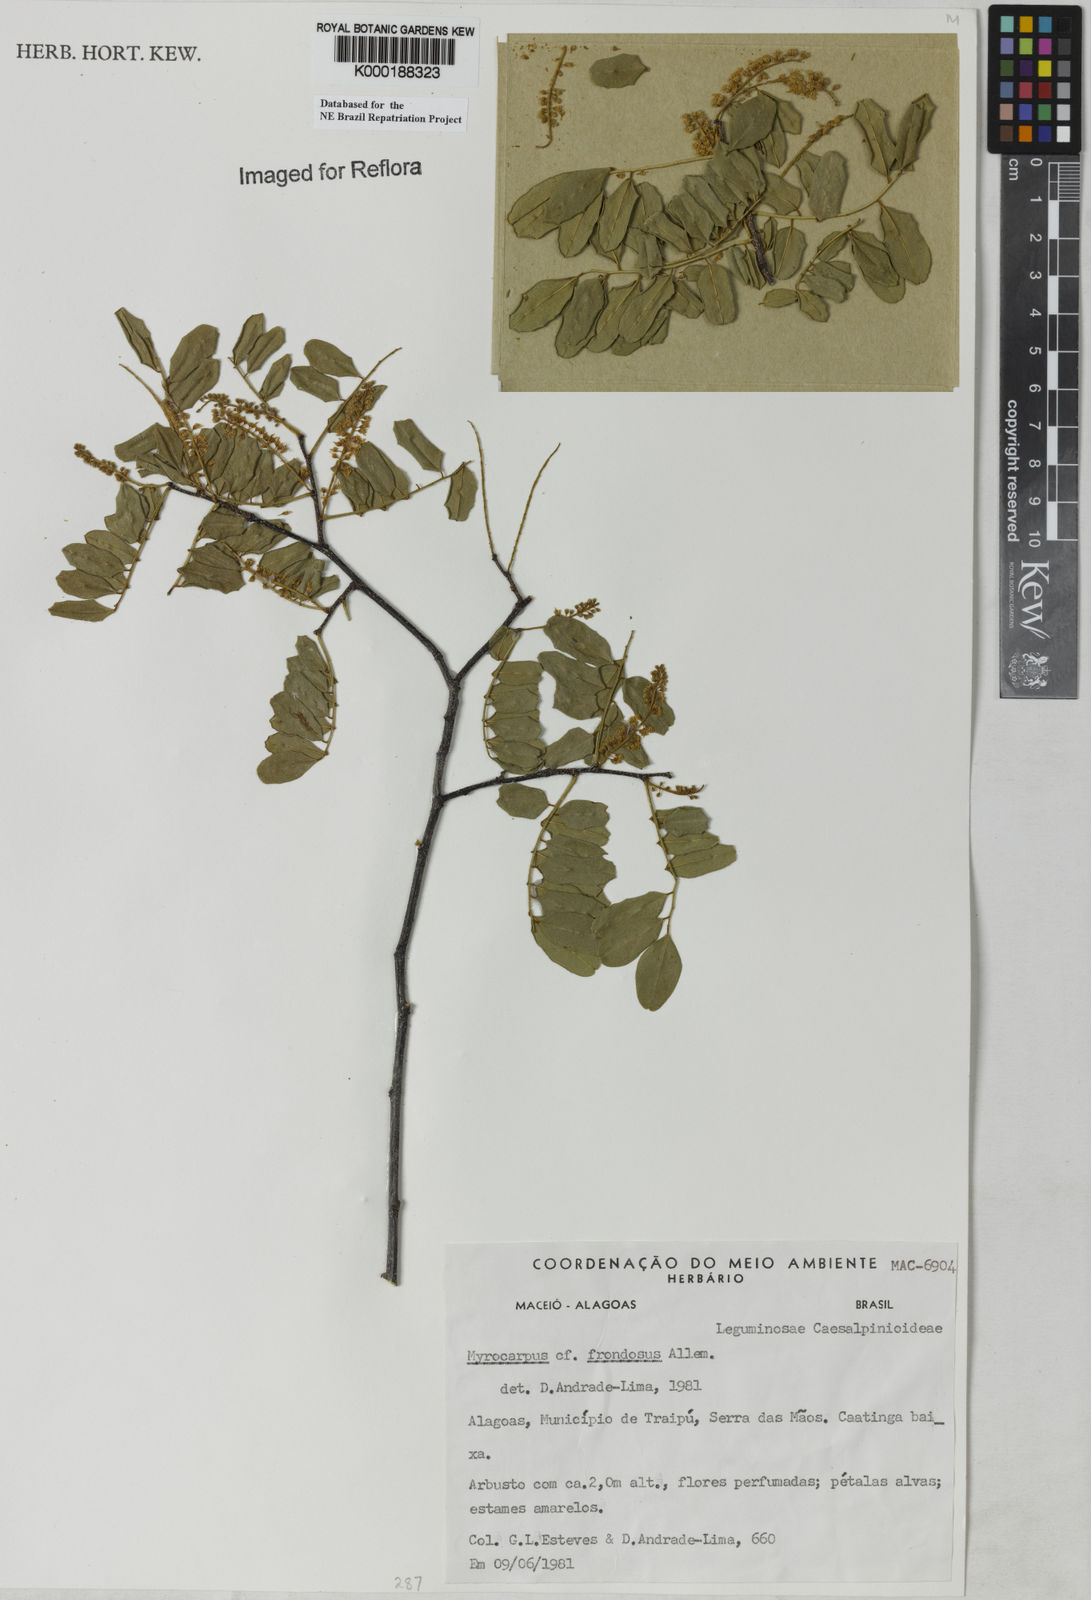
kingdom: Plantae
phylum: Tracheophyta
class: Magnoliopsida
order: Fabales
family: Fabaceae
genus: Myrocarpus
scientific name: Myrocarpus fastigiatus
